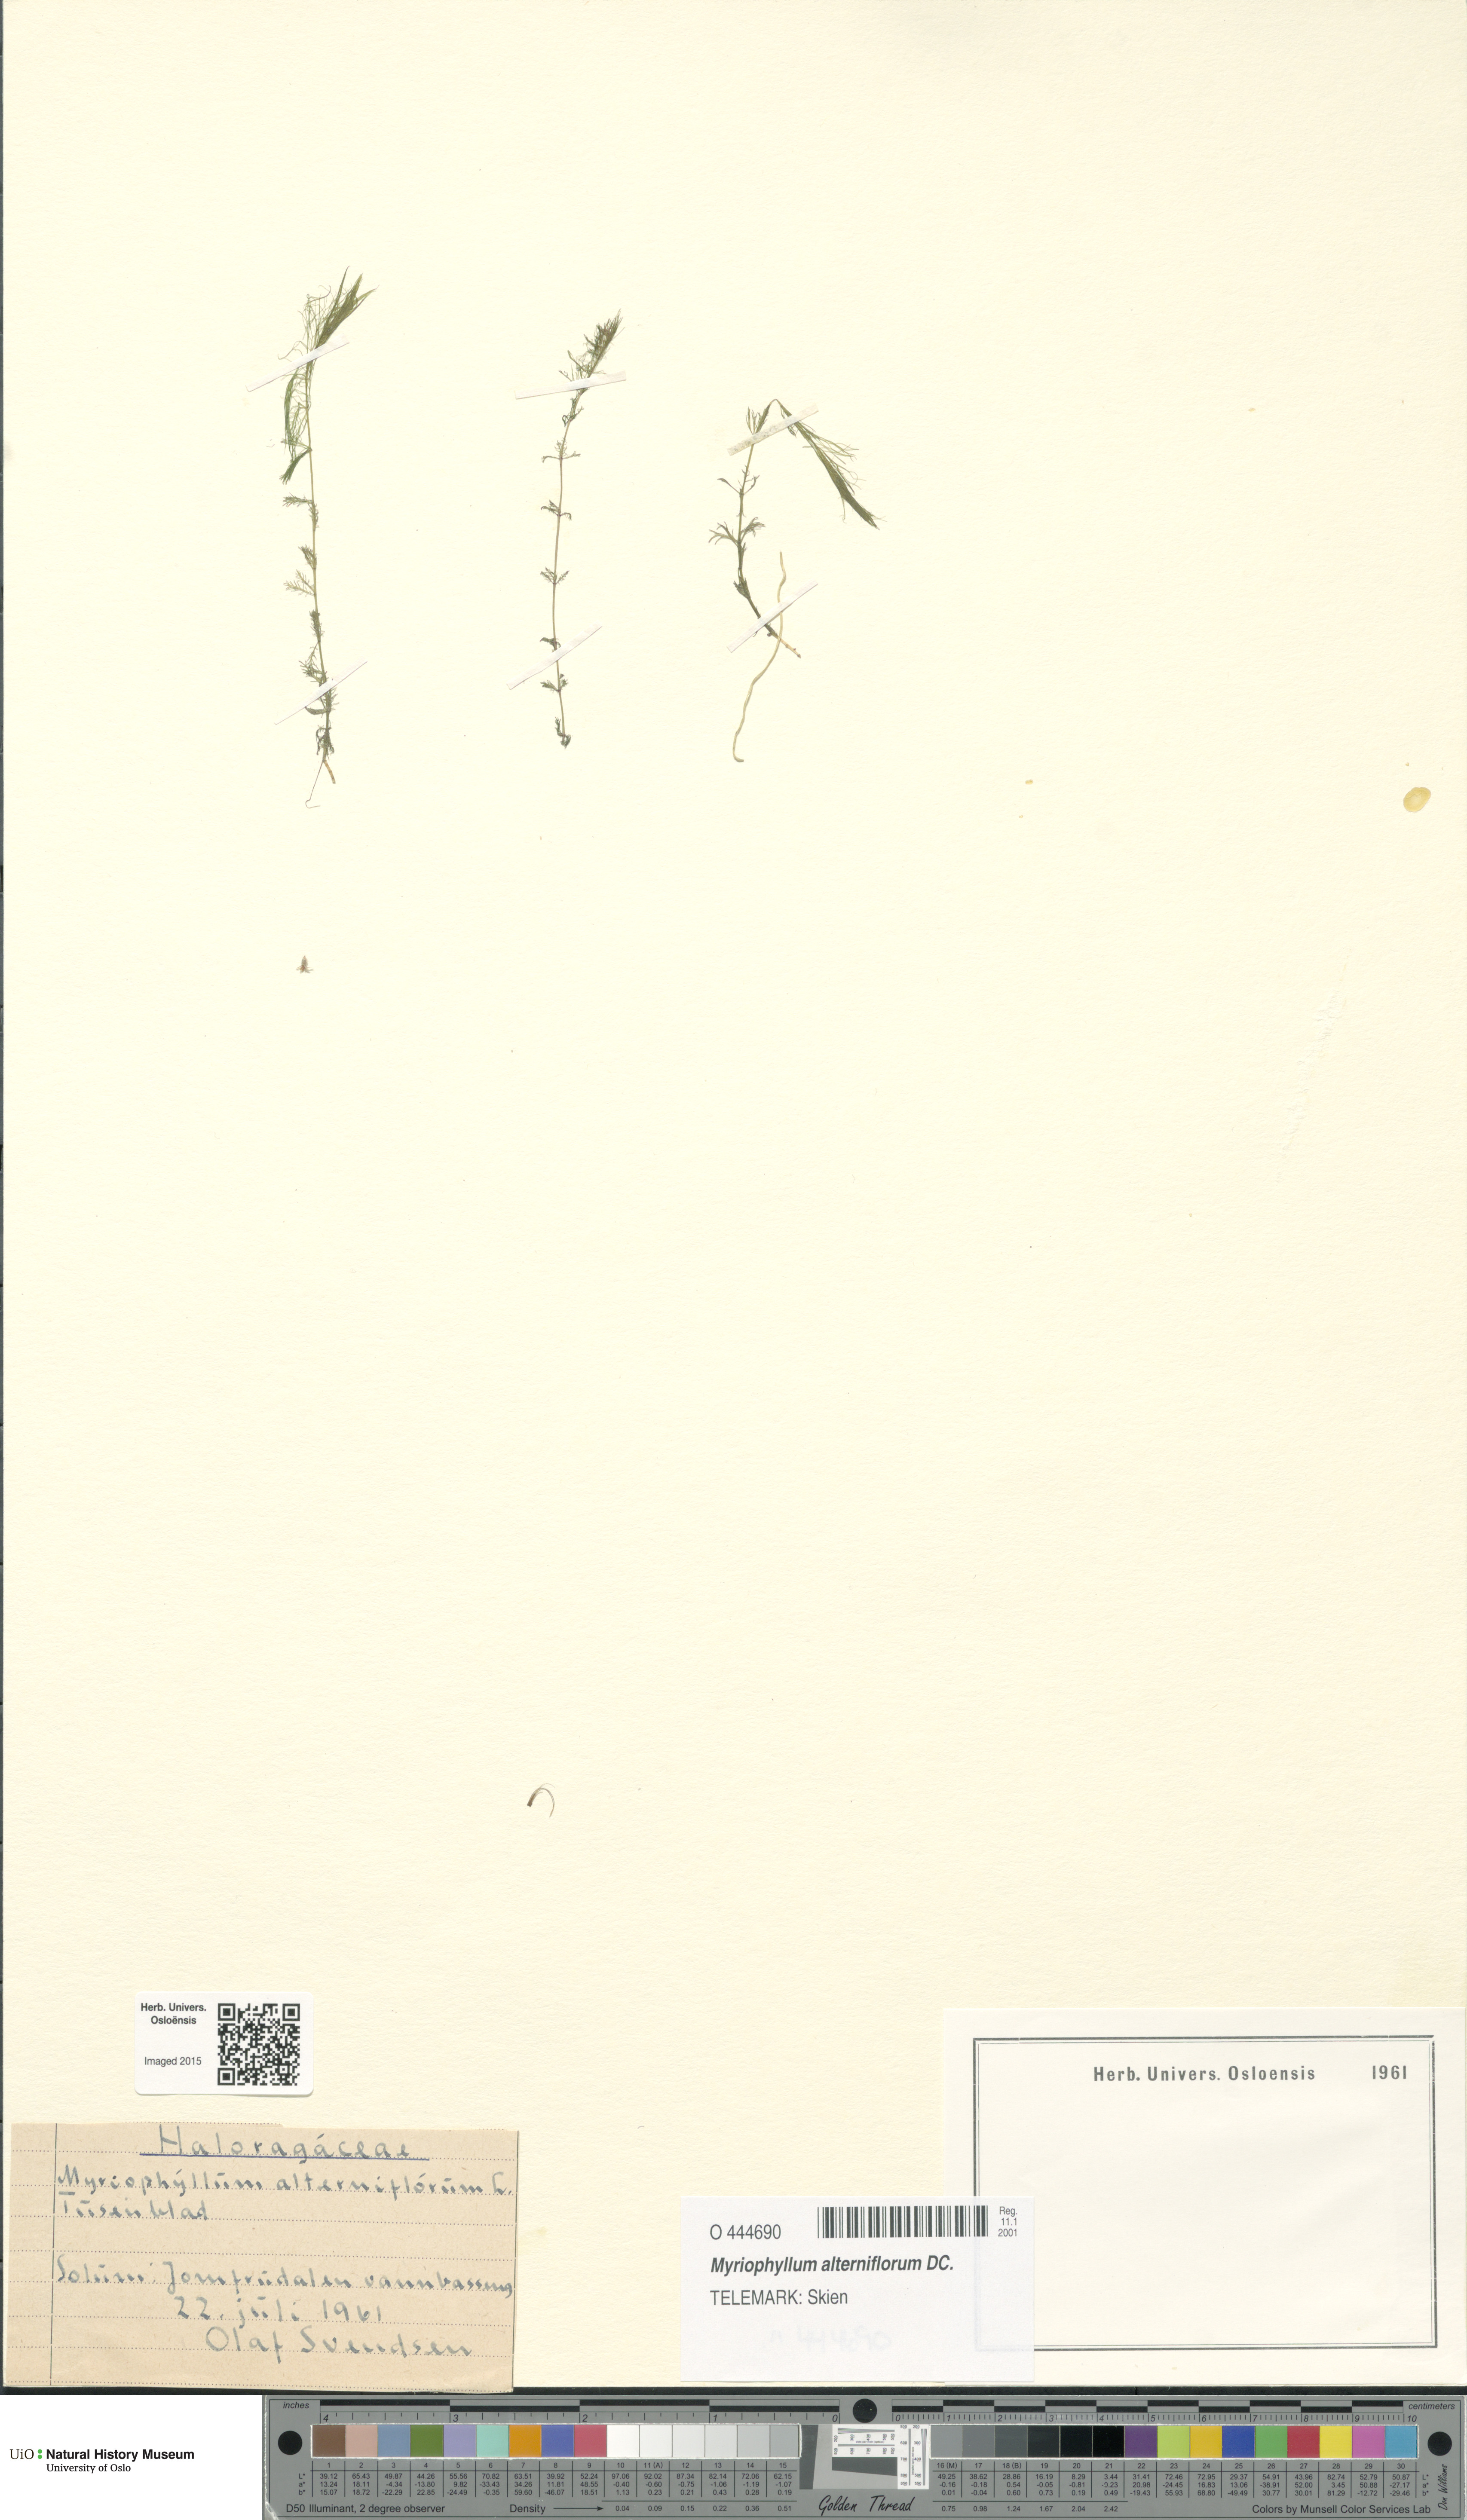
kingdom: Plantae
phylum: Tracheophyta
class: Magnoliopsida
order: Saxifragales
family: Haloragaceae
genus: Myriophyllum
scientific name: Myriophyllum alterniflorum
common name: Alternate water-milfoil
